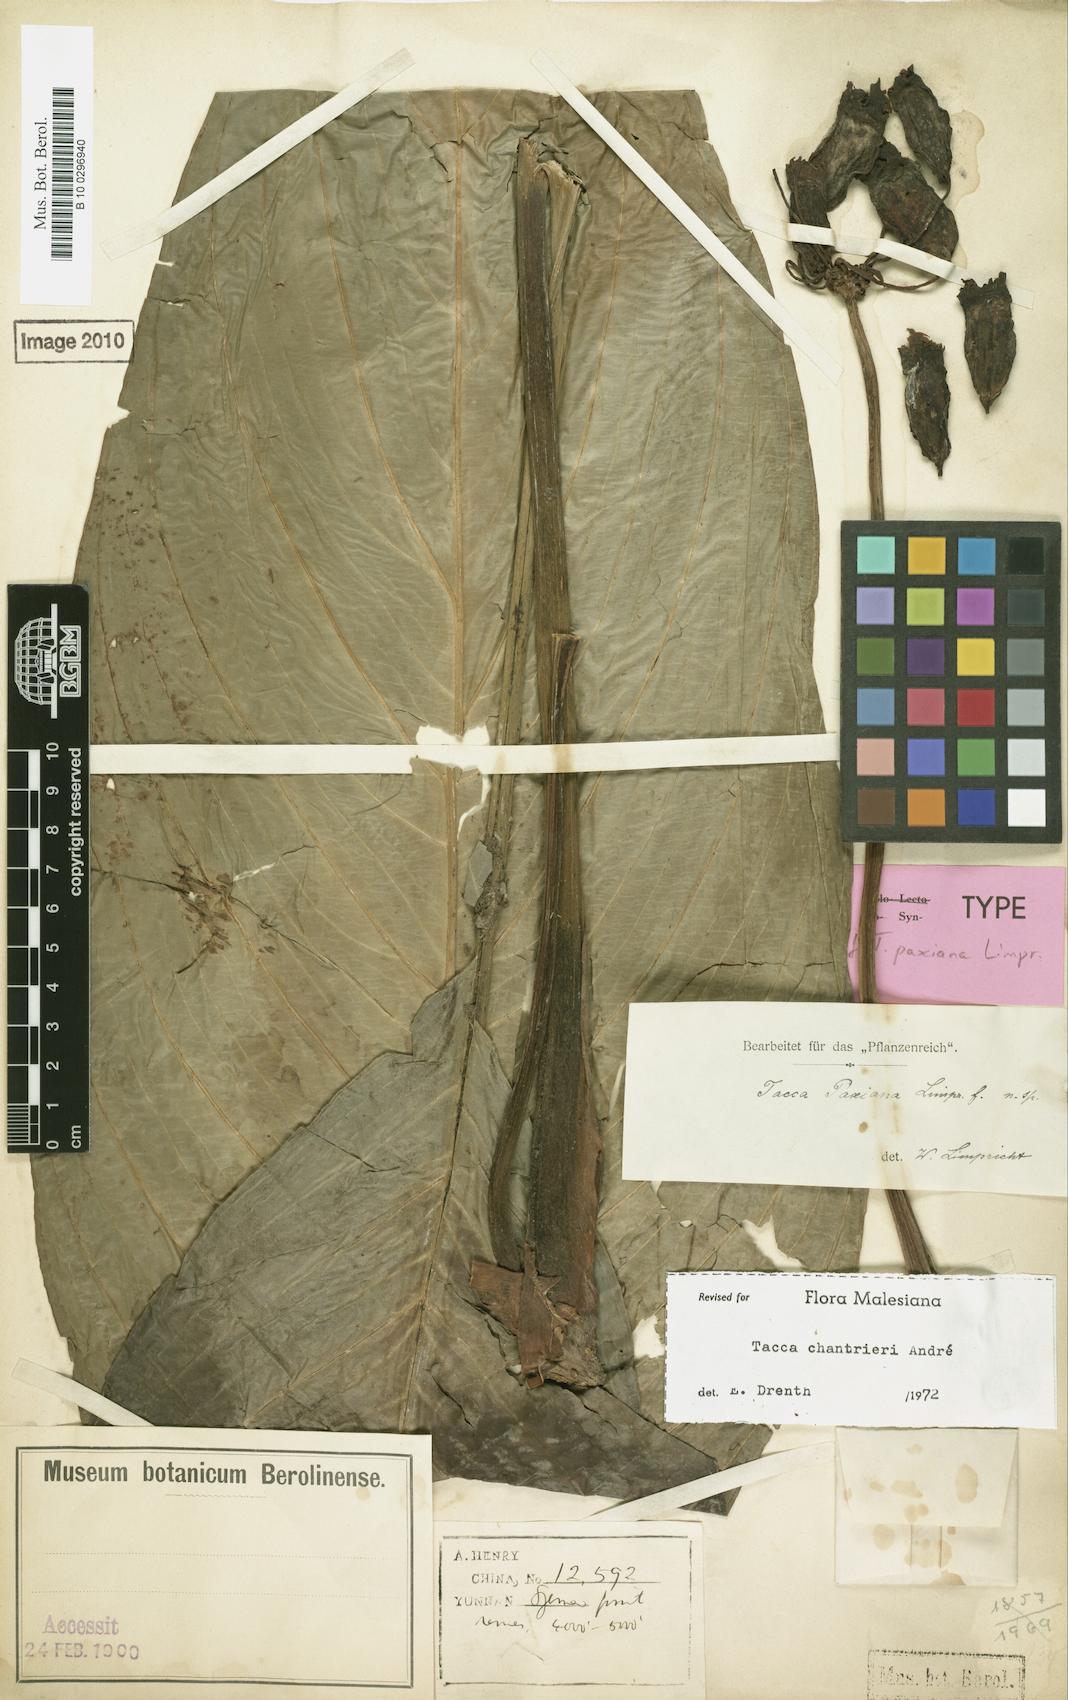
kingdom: Plantae
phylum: Tracheophyta
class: Liliopsida
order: Dioscoreales
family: Dioscoreaceae
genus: Tacca
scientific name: Tacca chantrieri
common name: Cat's-whiskers
